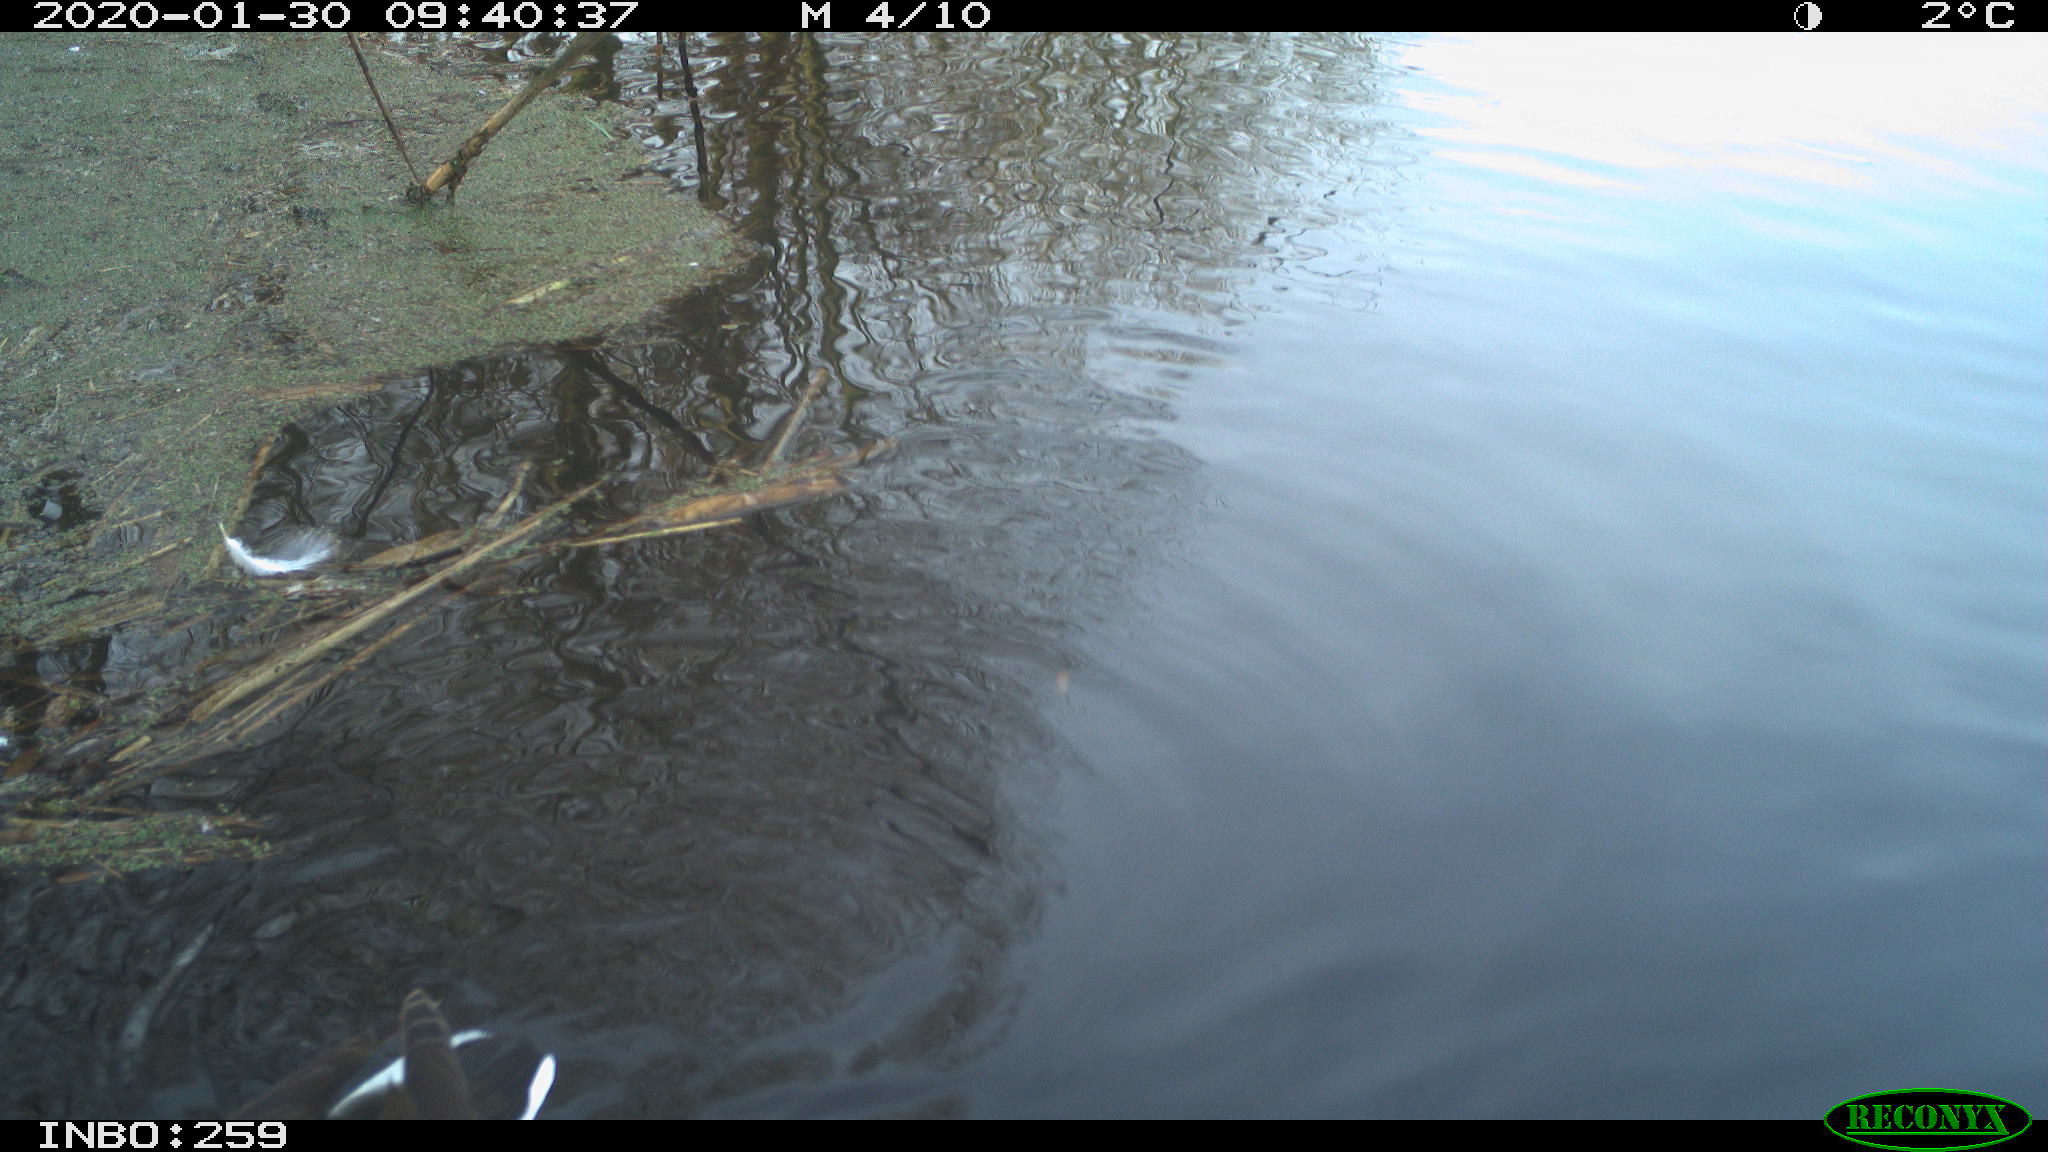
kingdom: Animalia
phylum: Chordata
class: Aves
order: Gruiformes
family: Rallidae
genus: Gallinula
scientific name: Gallinula chloropus
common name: Common moorhen
